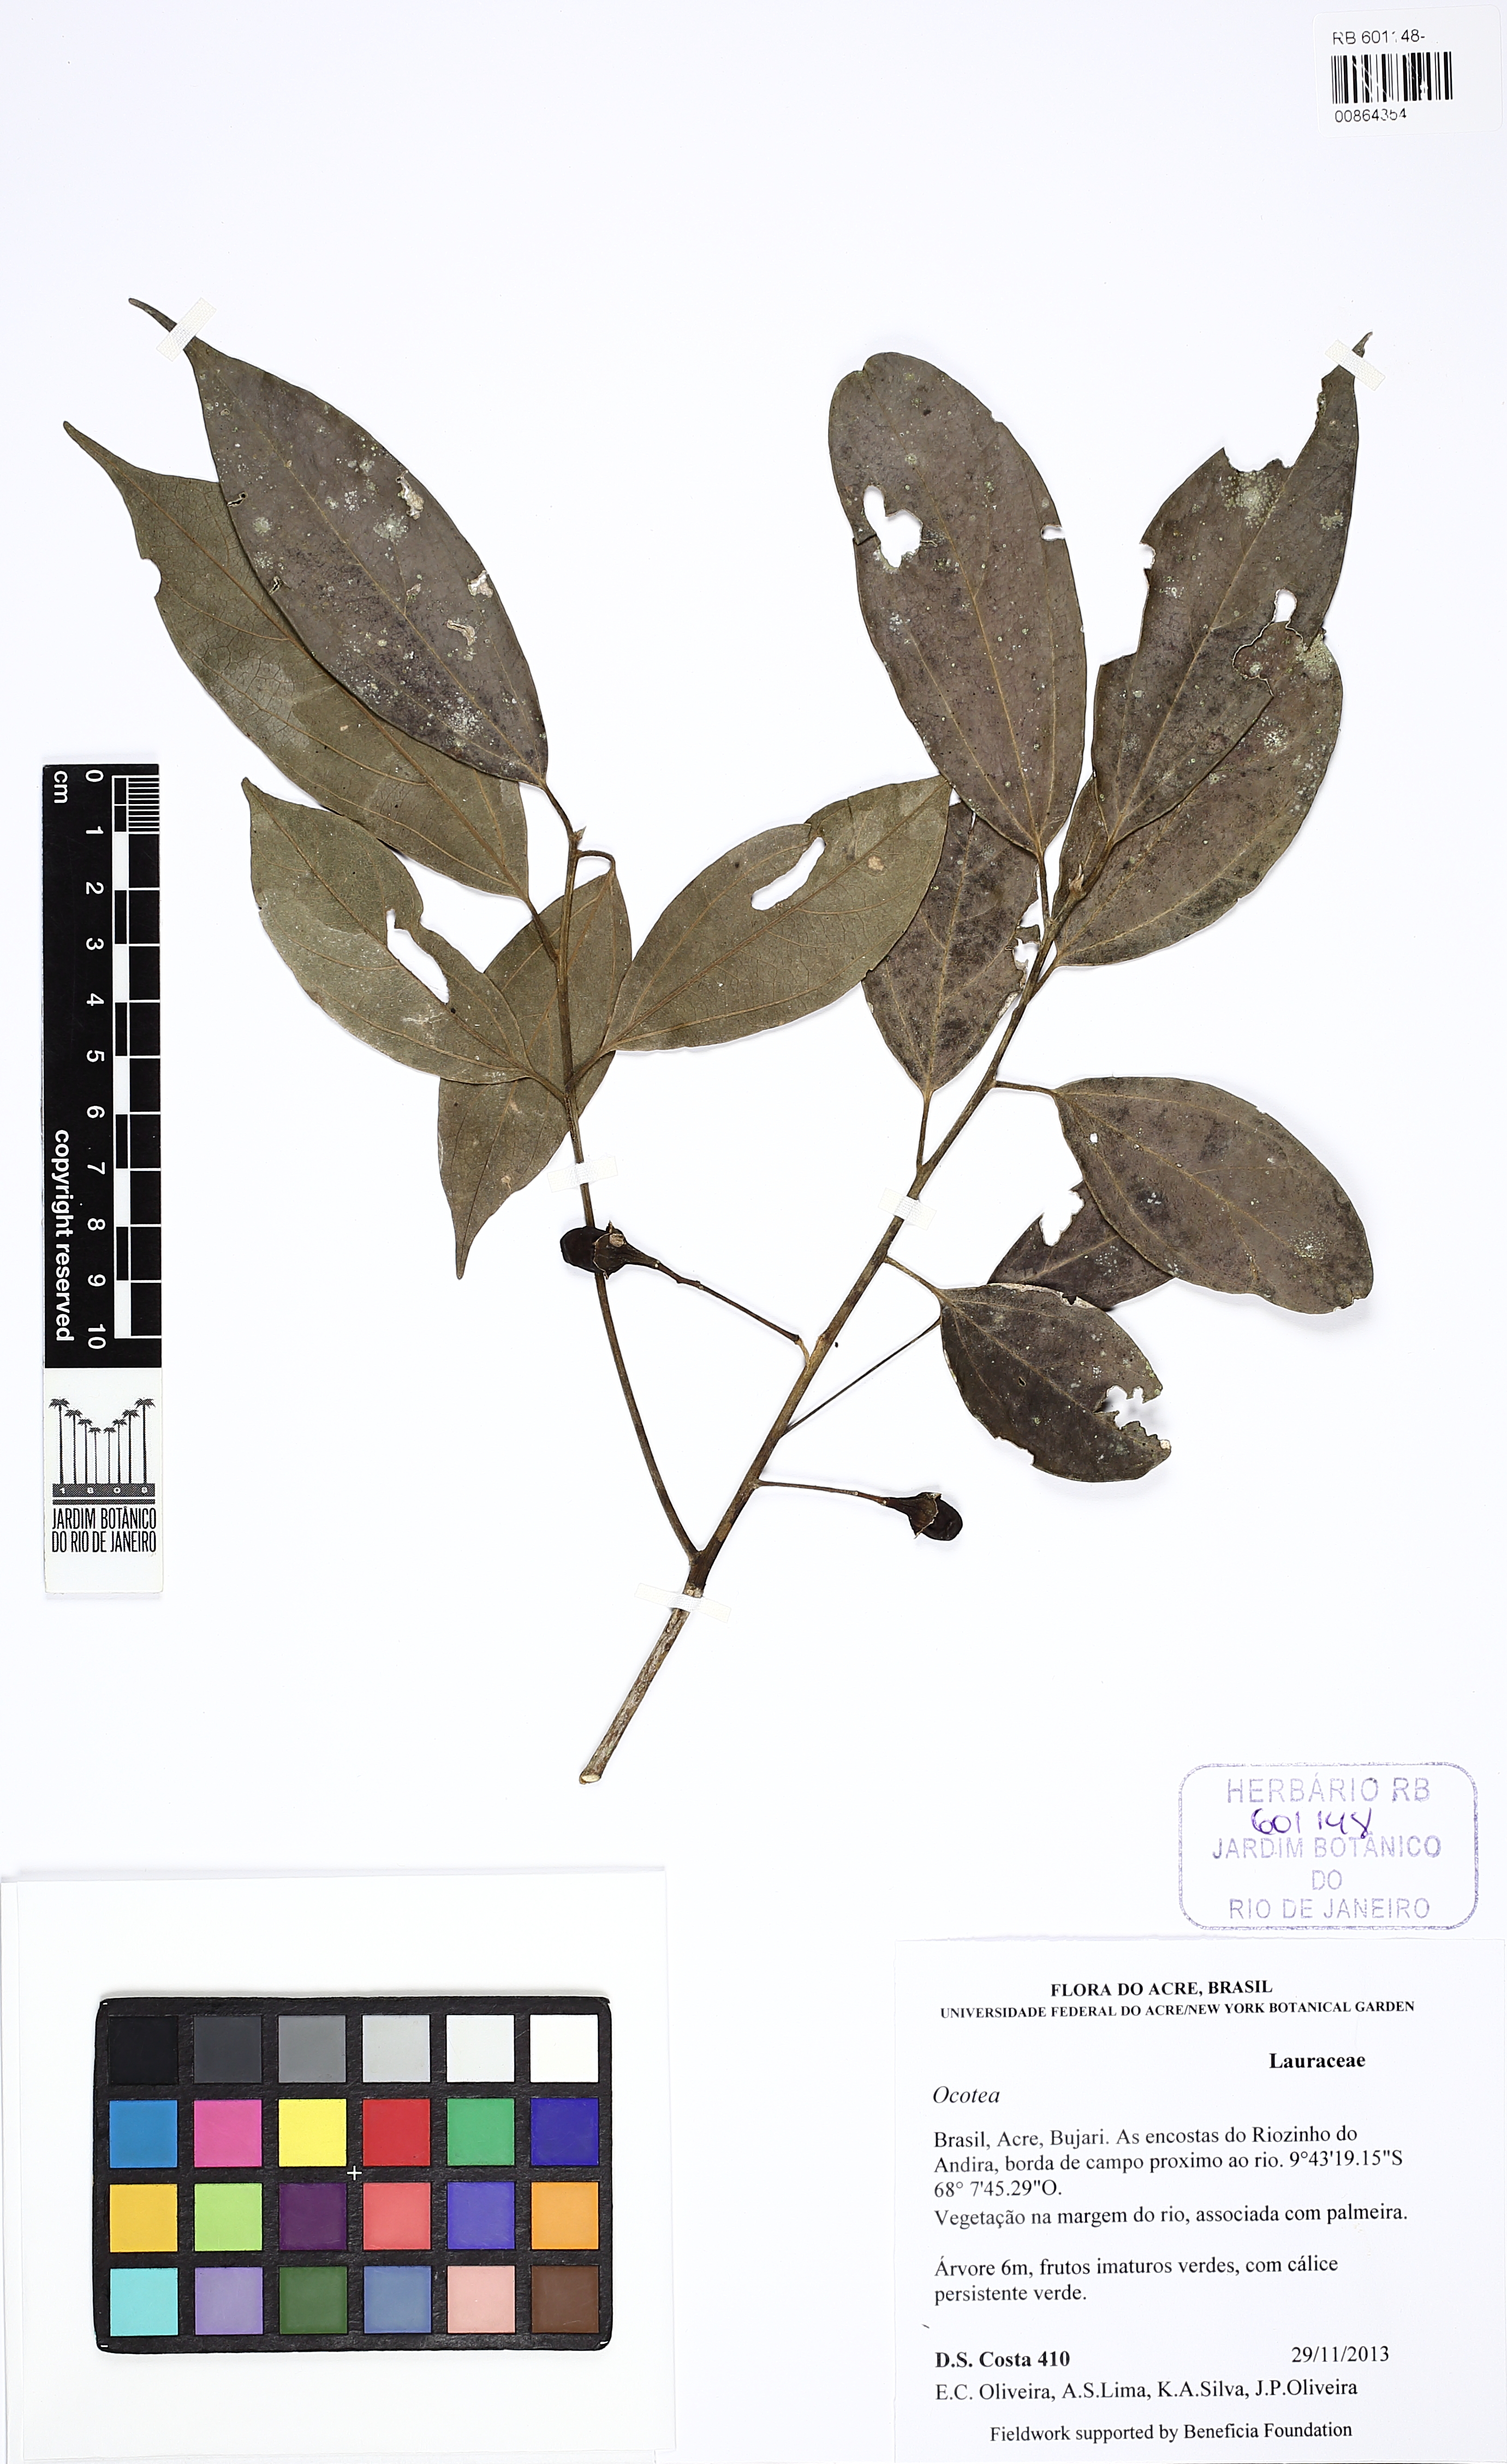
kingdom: Plantae
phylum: Tracheophyta
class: Magnoliopsida
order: Laurales
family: Lauraceae
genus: Ocotea
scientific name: Ocotea
